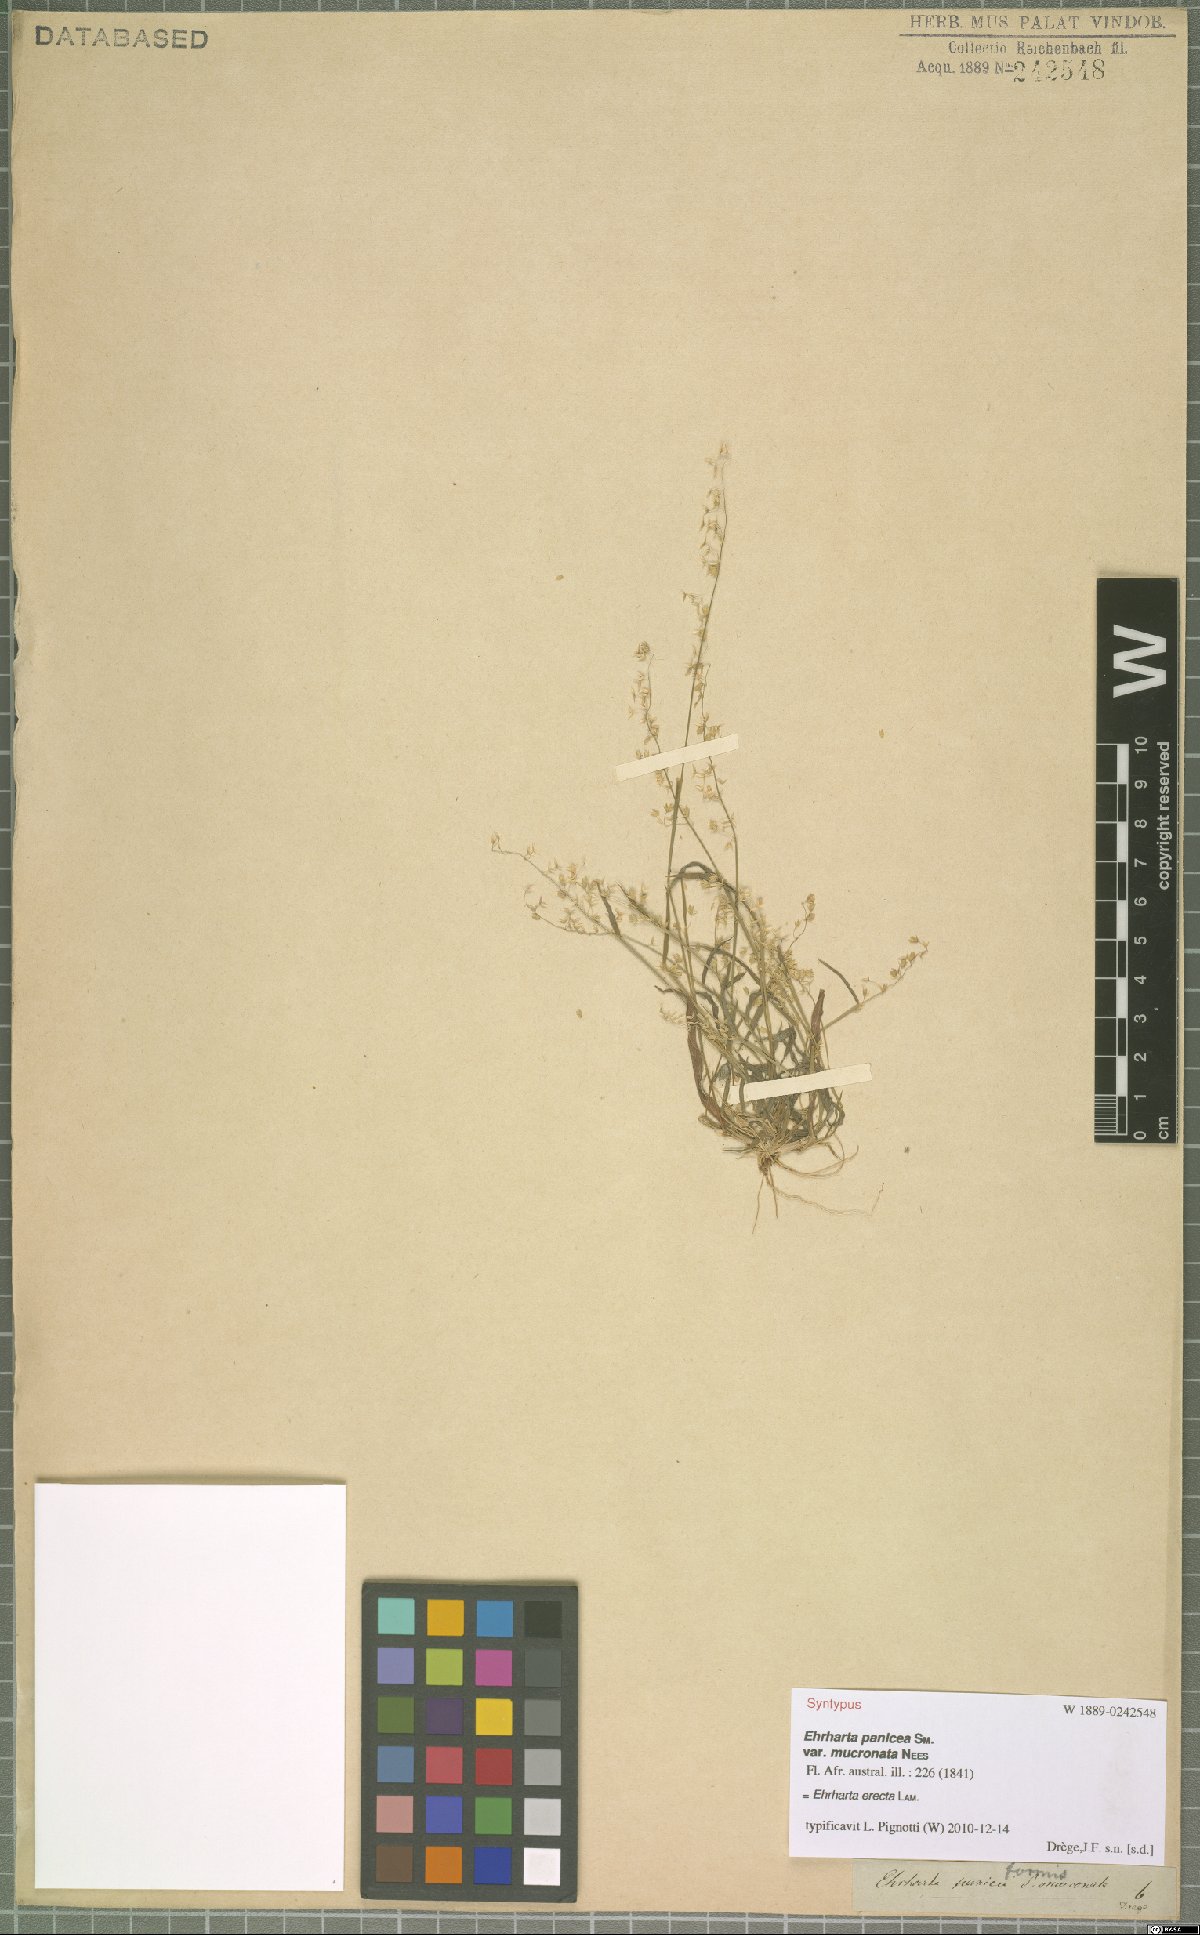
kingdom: Plantae
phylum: Tracheophyta
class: Liliopsida
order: Poales
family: Poaceae
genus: Ehrharta
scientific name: Ehrharta erecta
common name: Panic veldtgrass
